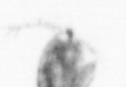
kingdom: Animalia
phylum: Arthropoda
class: Copepoda
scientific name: Copepoda
